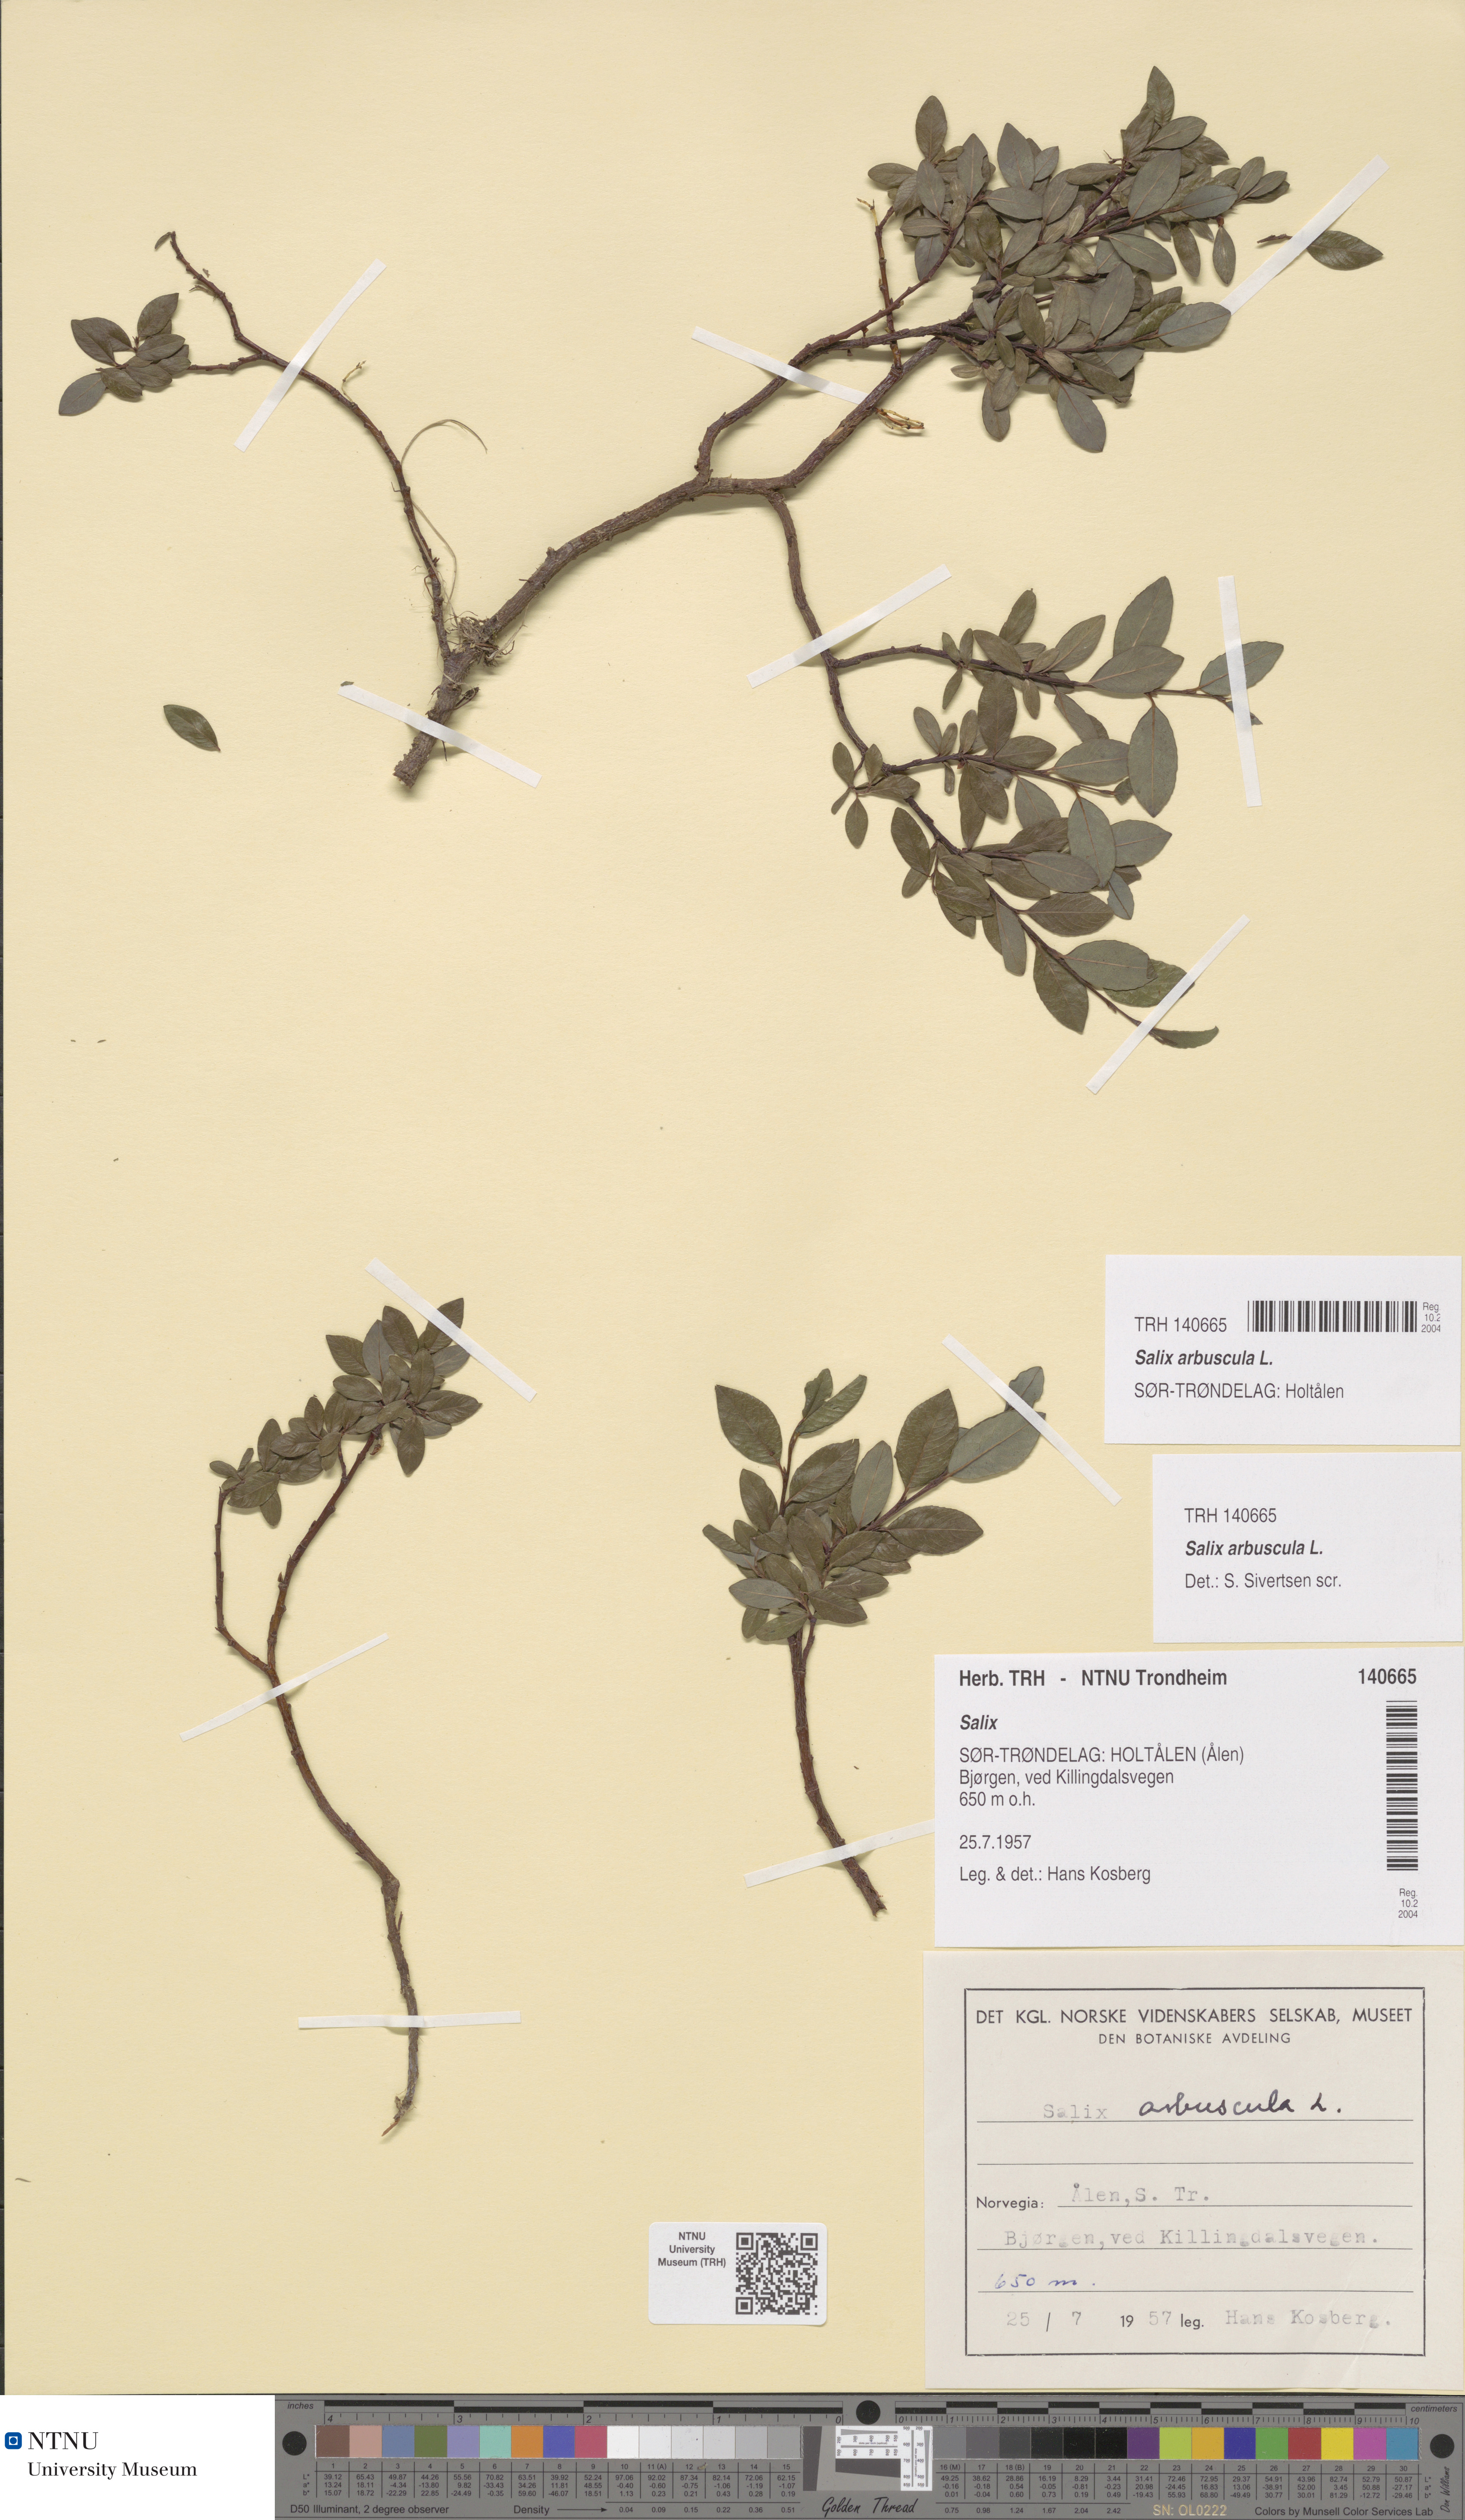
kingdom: Plantae
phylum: Tracheophyta
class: Magnoliopsida
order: Malpighiales
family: Salicaceae
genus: Salix
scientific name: Salix arbuscula
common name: Mountain willow
